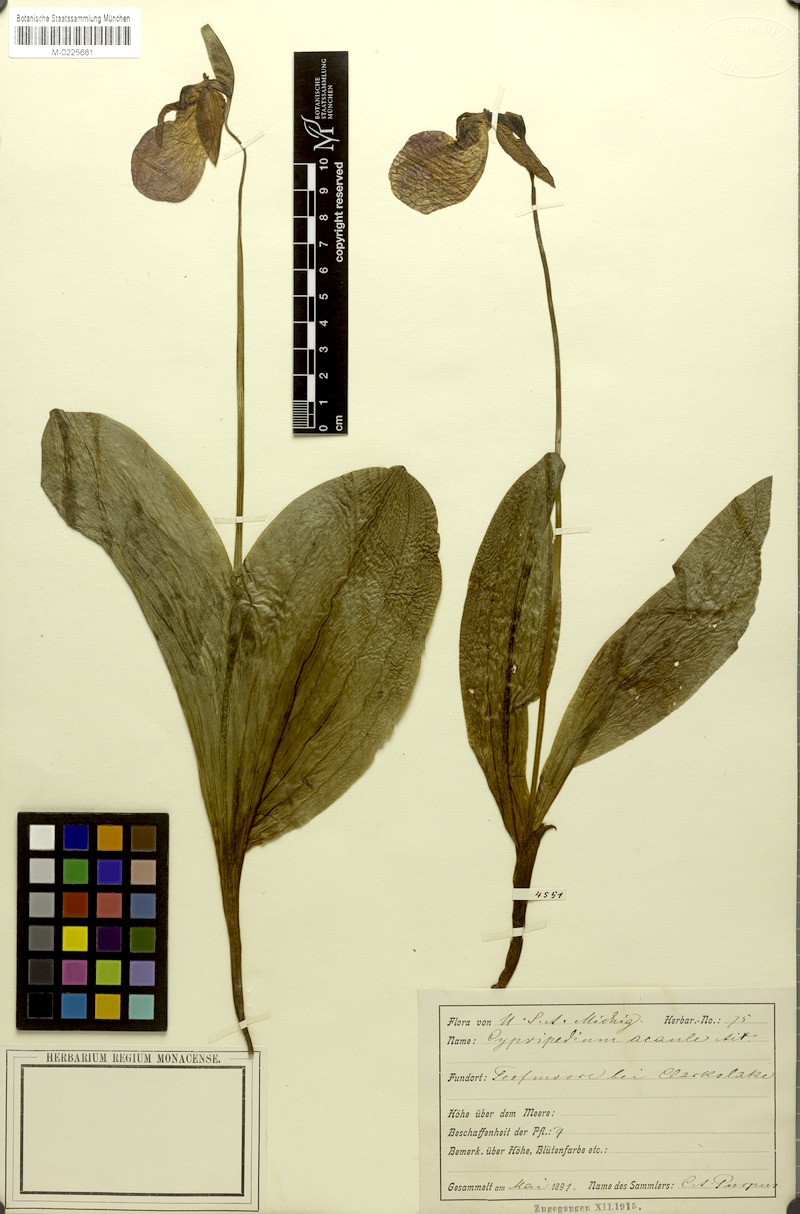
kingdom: Plantae
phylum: Tracheophyta
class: Liliopsida
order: Asparagales
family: Orchidaceae
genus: Cypripedium
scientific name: Cypripedium acaule
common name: Pink lady's-slipper
